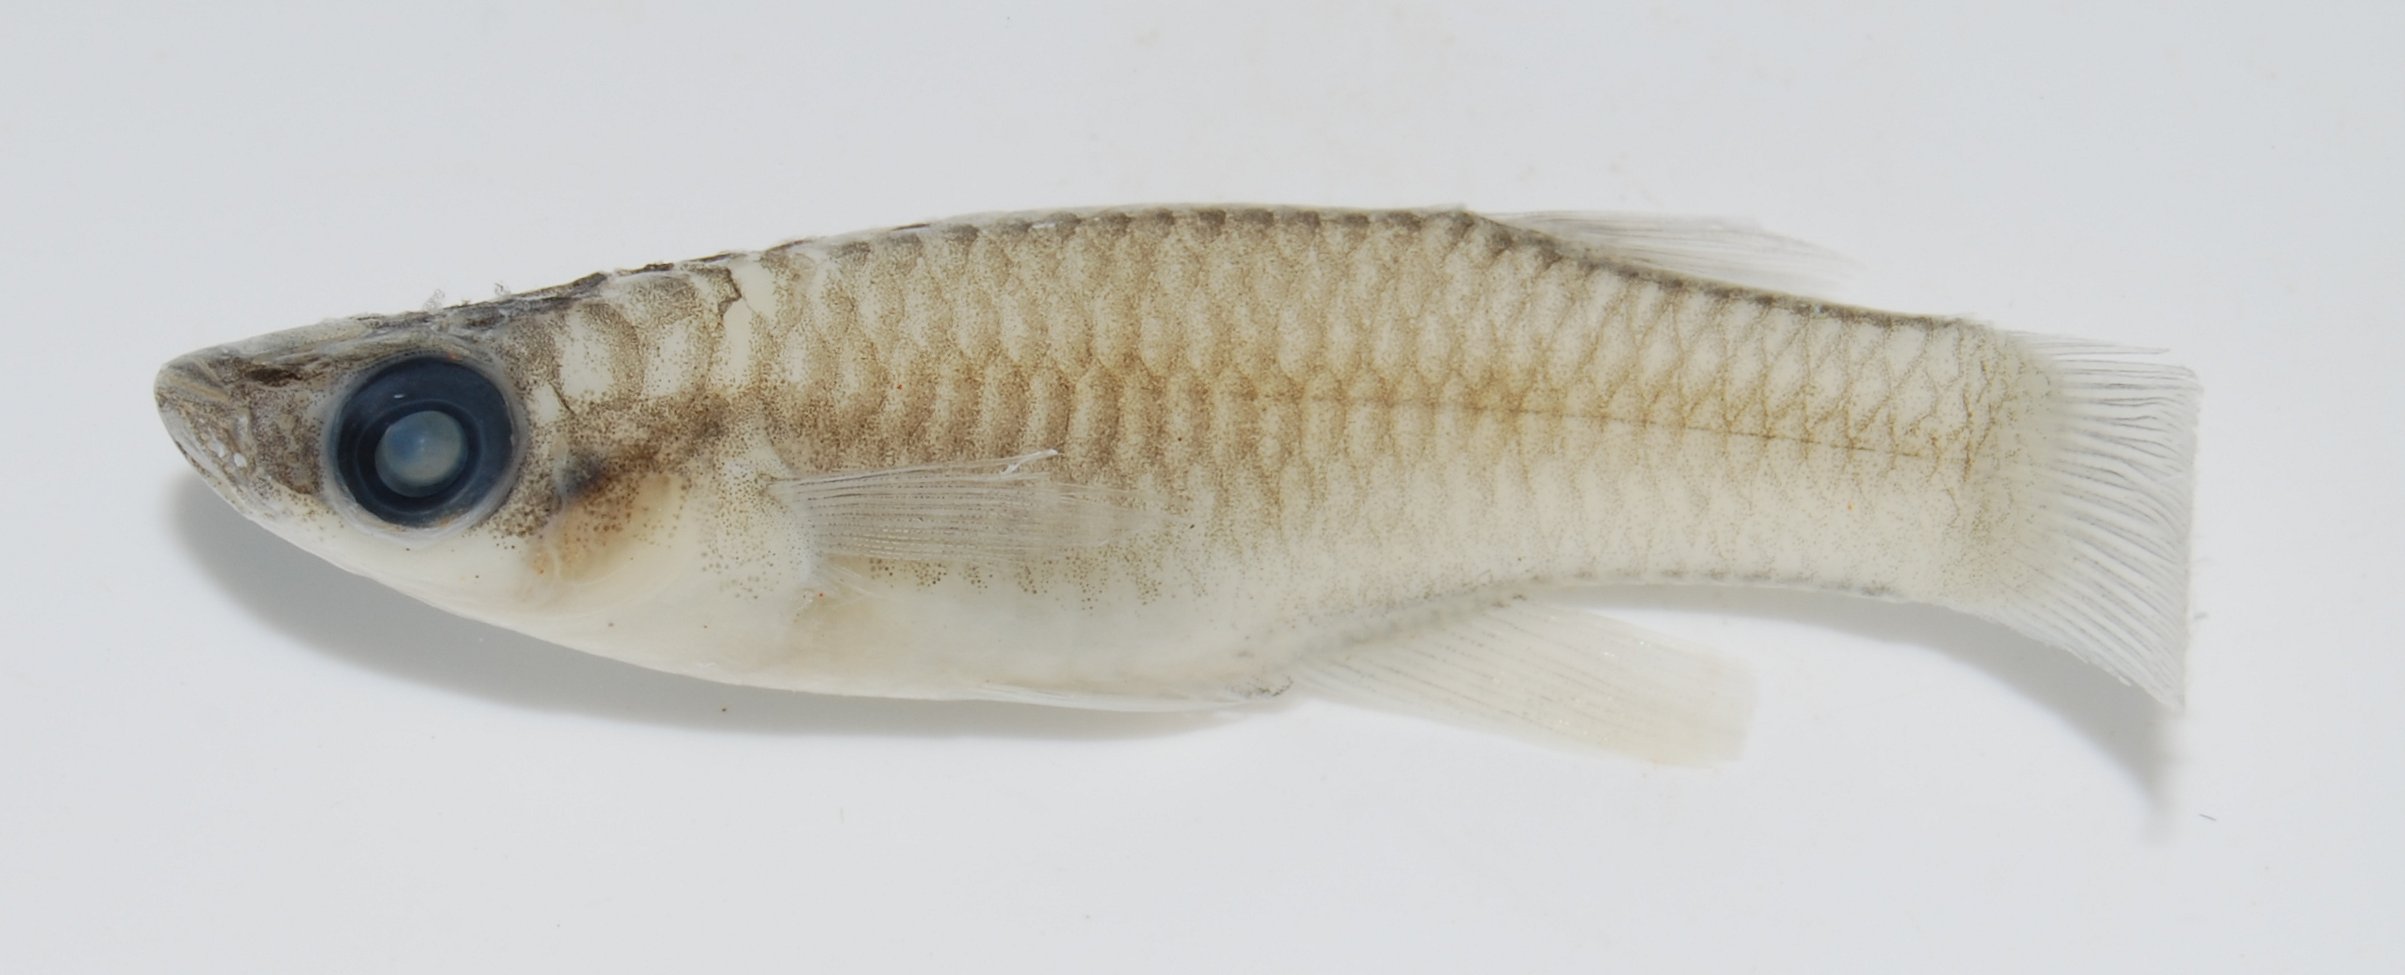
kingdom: Animalia
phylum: Chordata
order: Cyprinodontiformes
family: Poeciliidae
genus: Micropanchax
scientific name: Micropanchax
